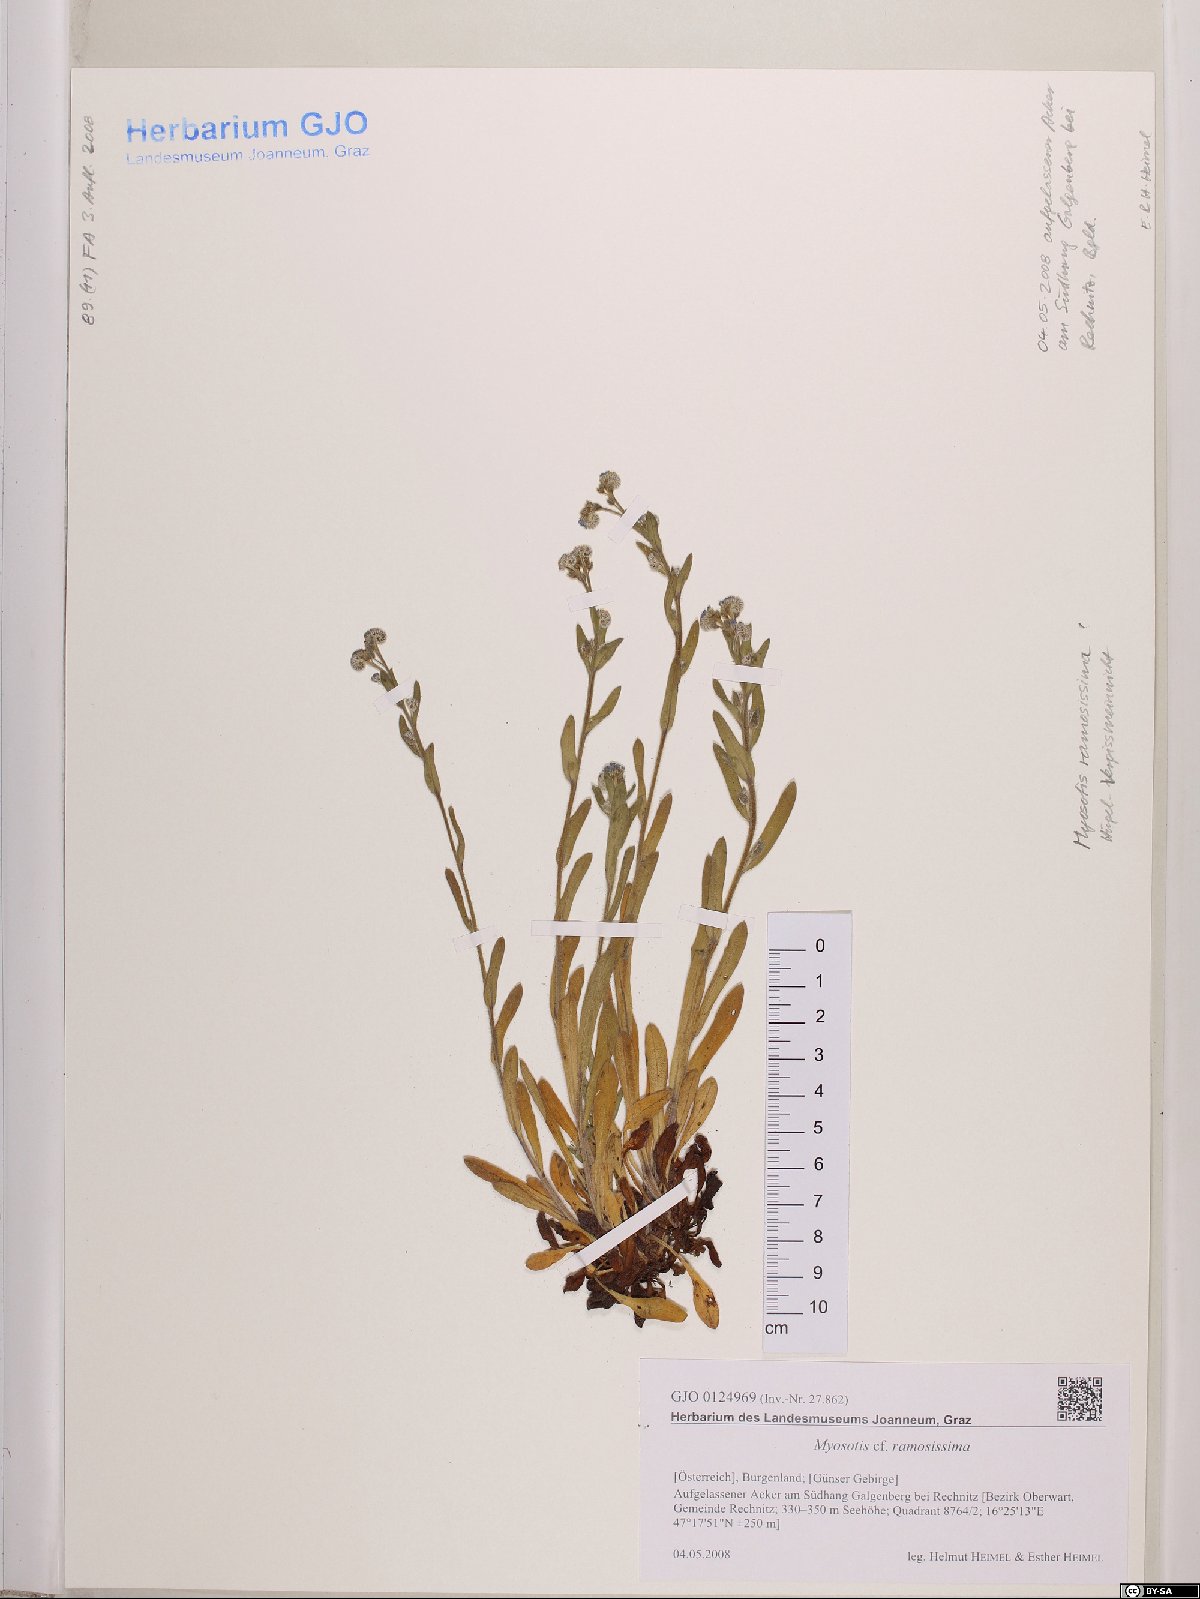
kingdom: Plantae
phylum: Tracheophyta
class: Magnoliopsida
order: Boraginales
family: Boraginaceae
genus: Myosotis
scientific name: Myosotis ramosissima
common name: Early forget-me-not
